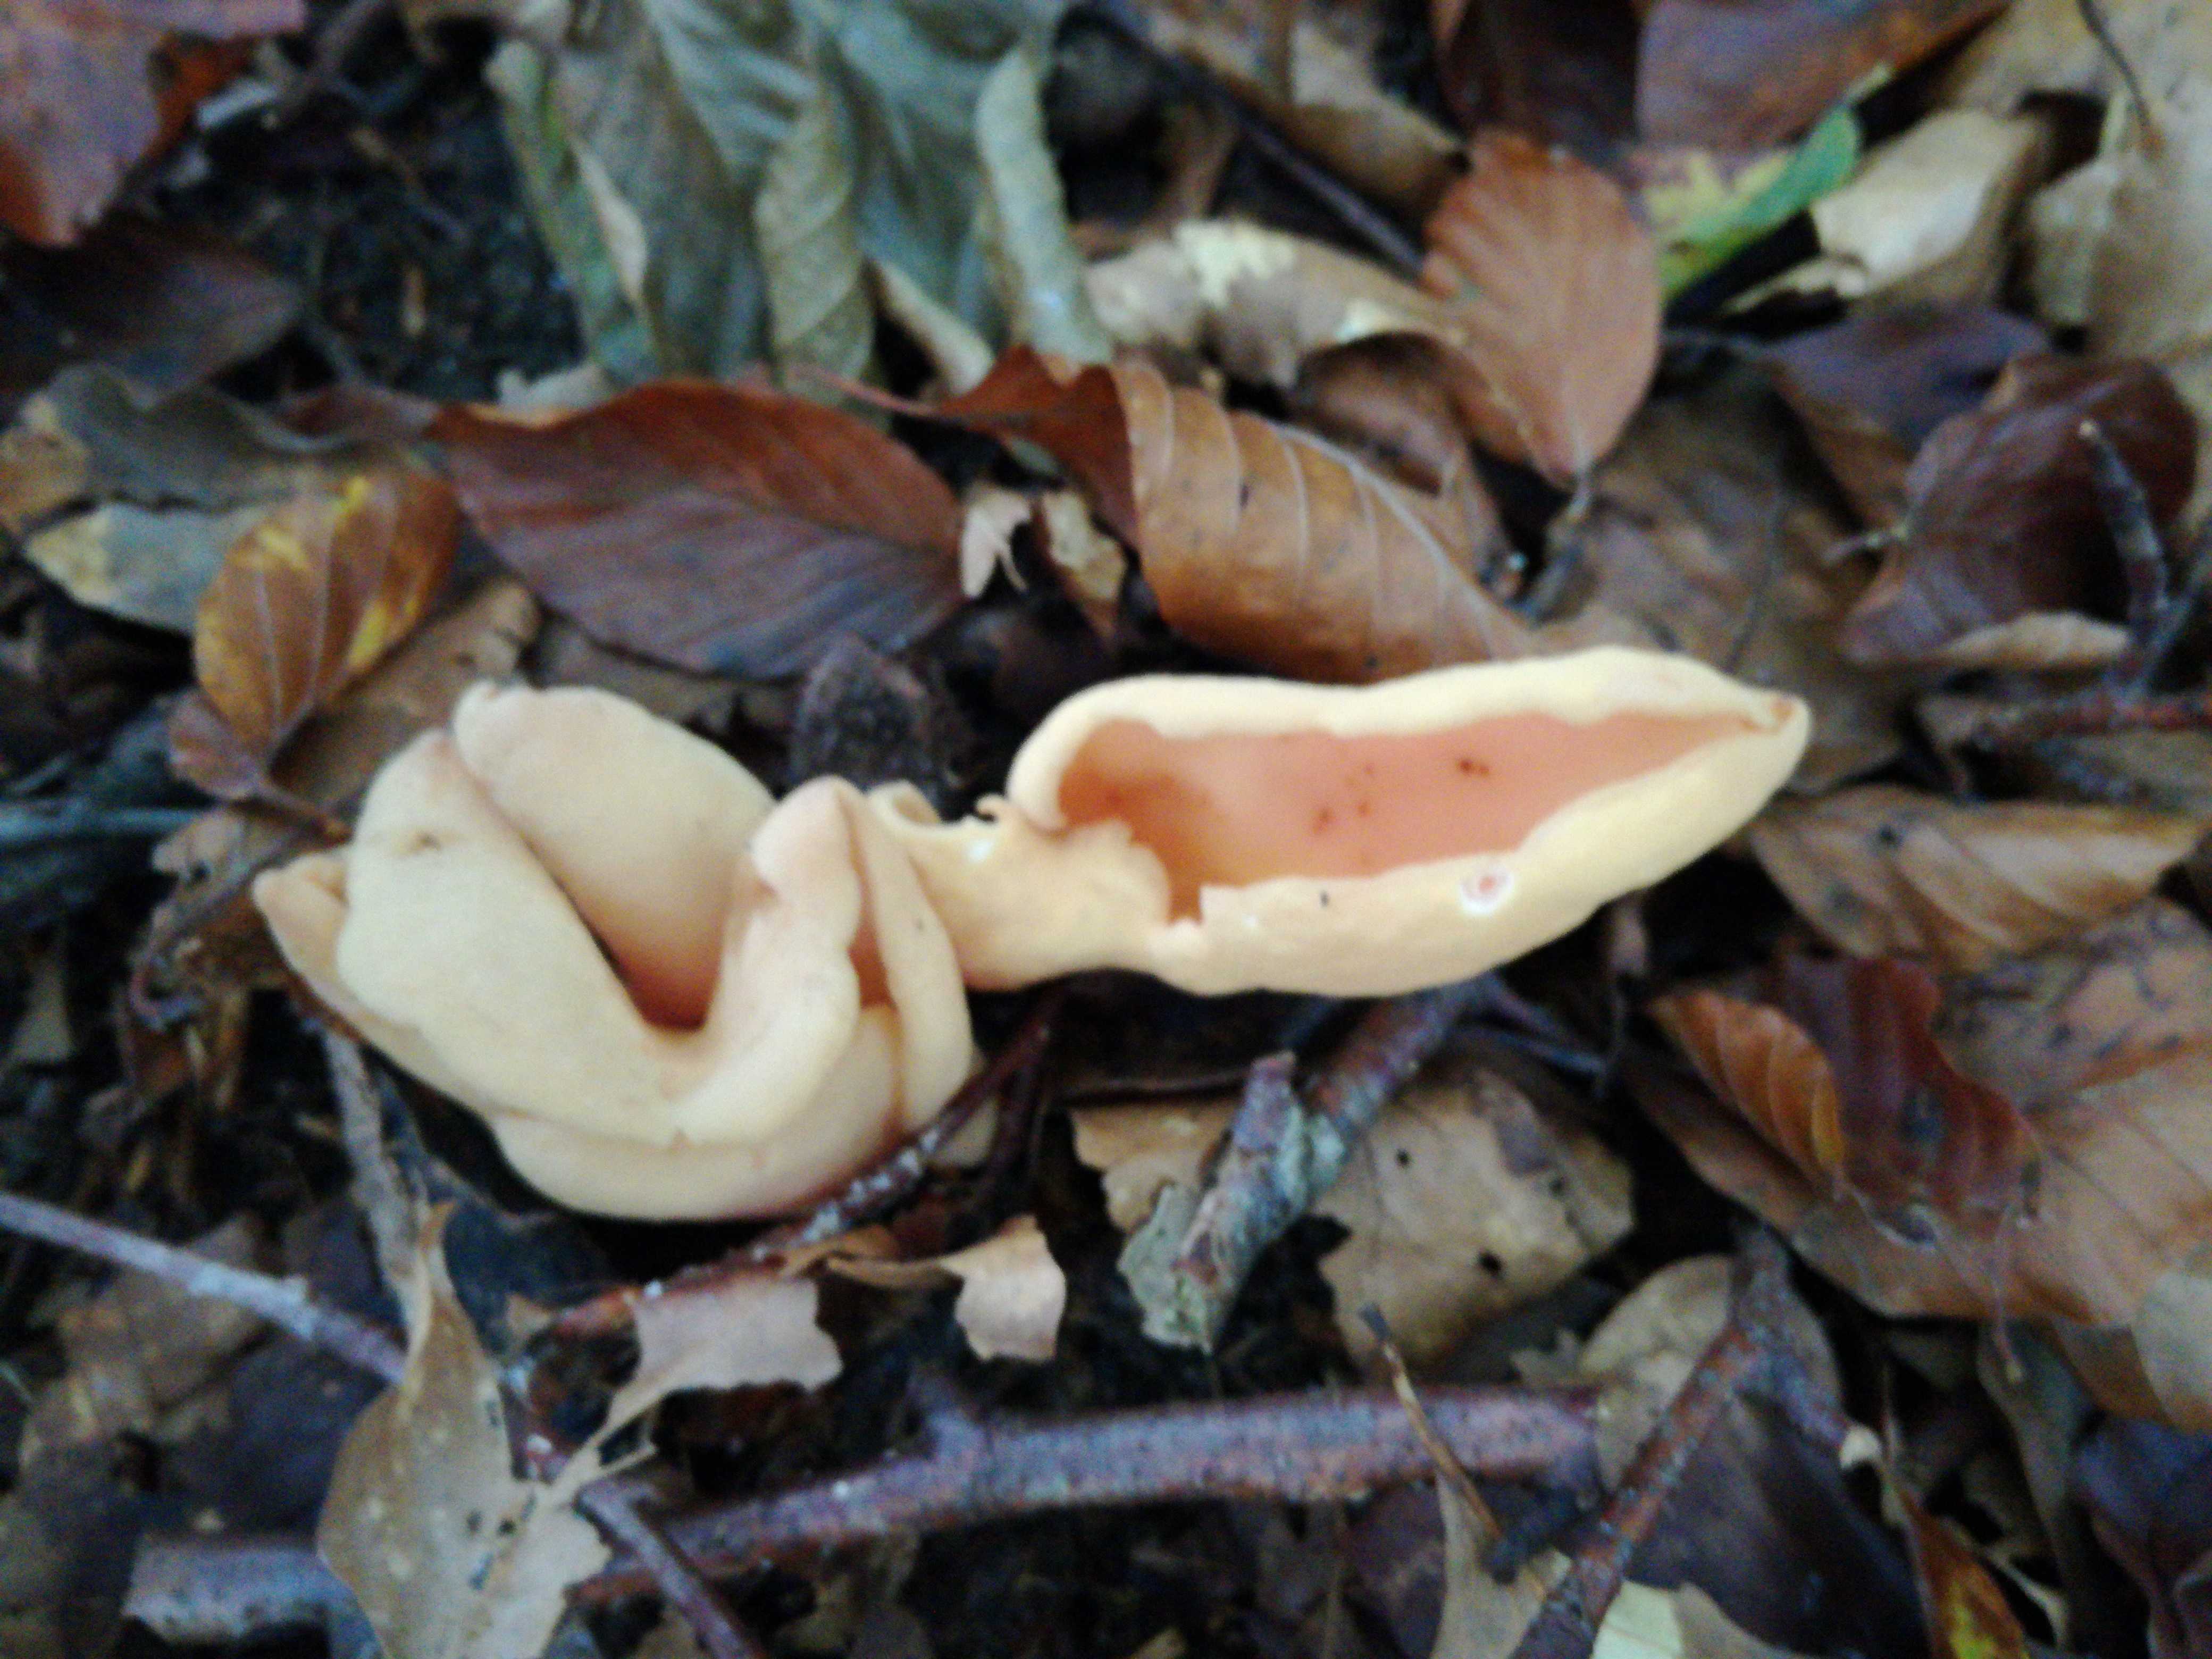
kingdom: Fungi
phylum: Ascomycota
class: Pezizomycetes
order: Pezizales
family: Otideaceae
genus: Otidea
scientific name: Otidea onotica
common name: æsel-ørebæger
